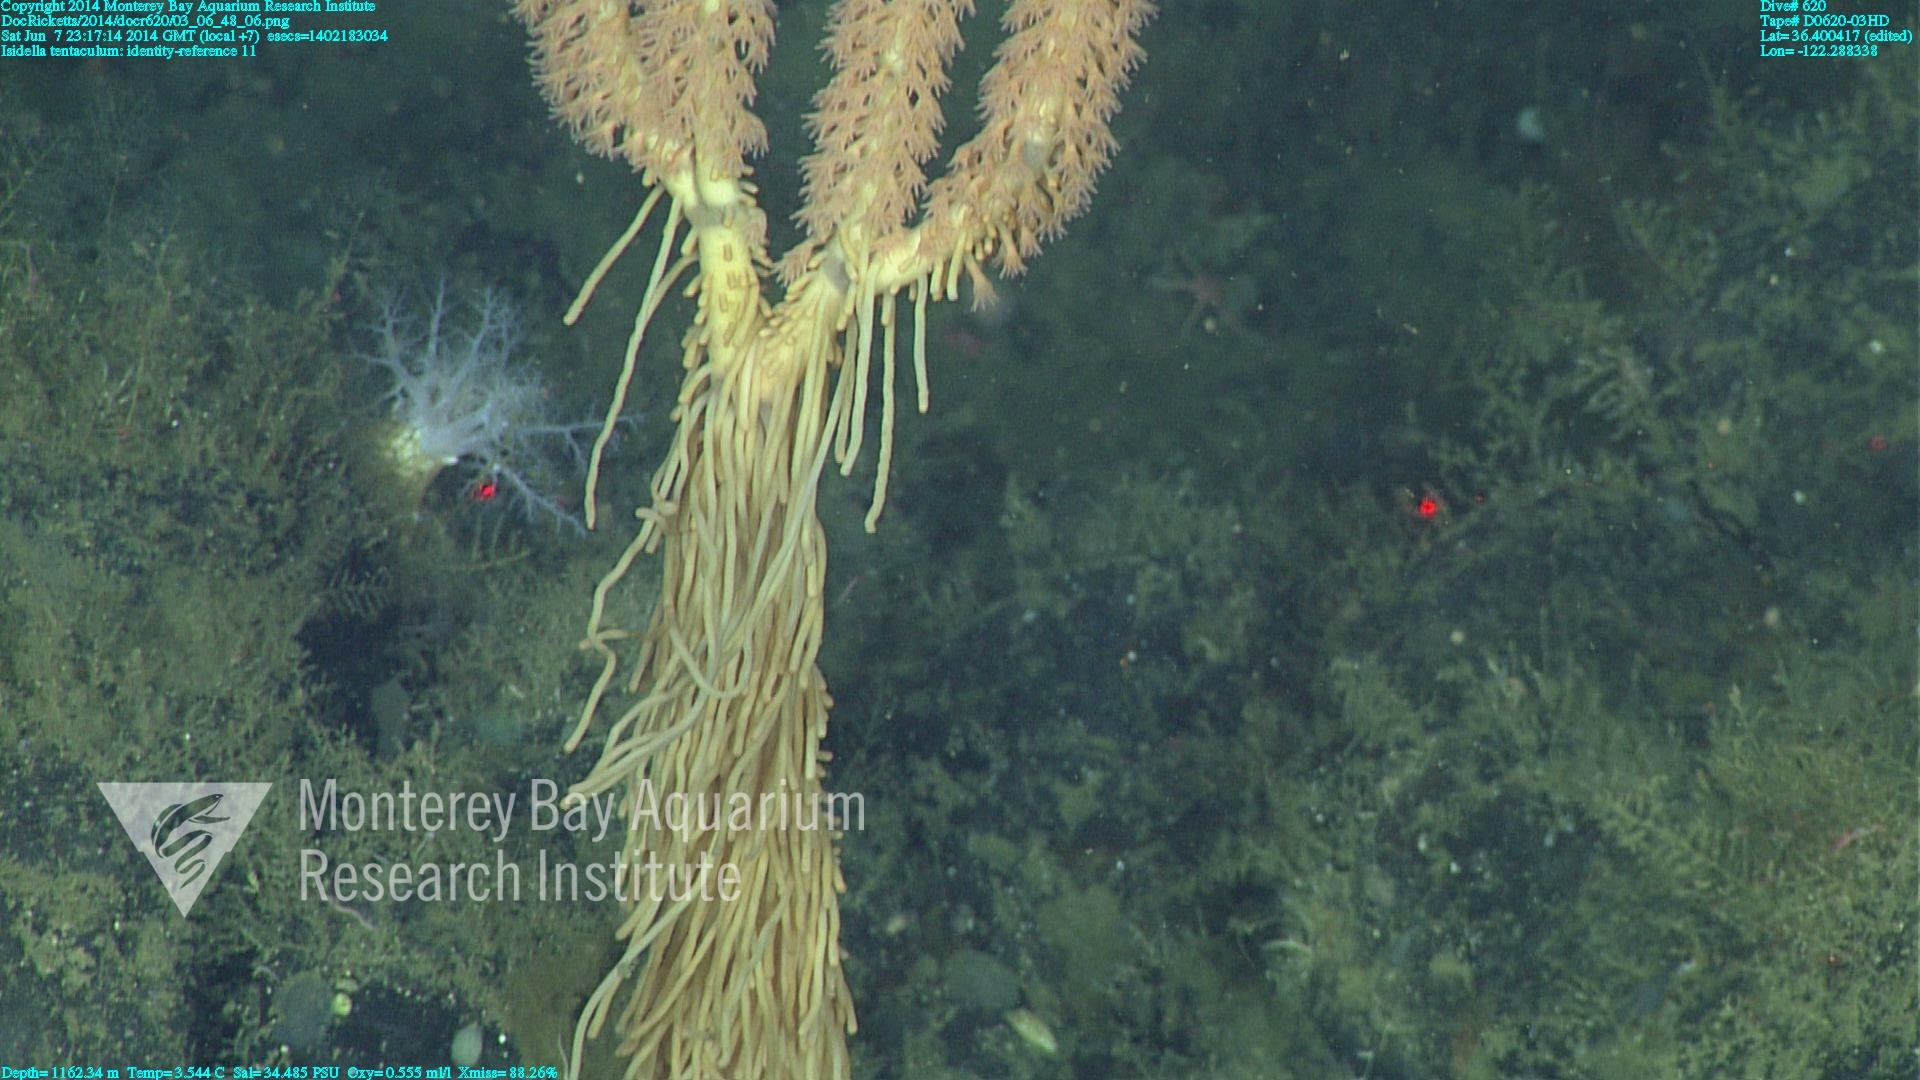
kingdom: Animalia
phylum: Cnidaria
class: Anthozoa
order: Scleralcyonacea
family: Keratoisididae
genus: Isidella
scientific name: Isidella tentaculum
